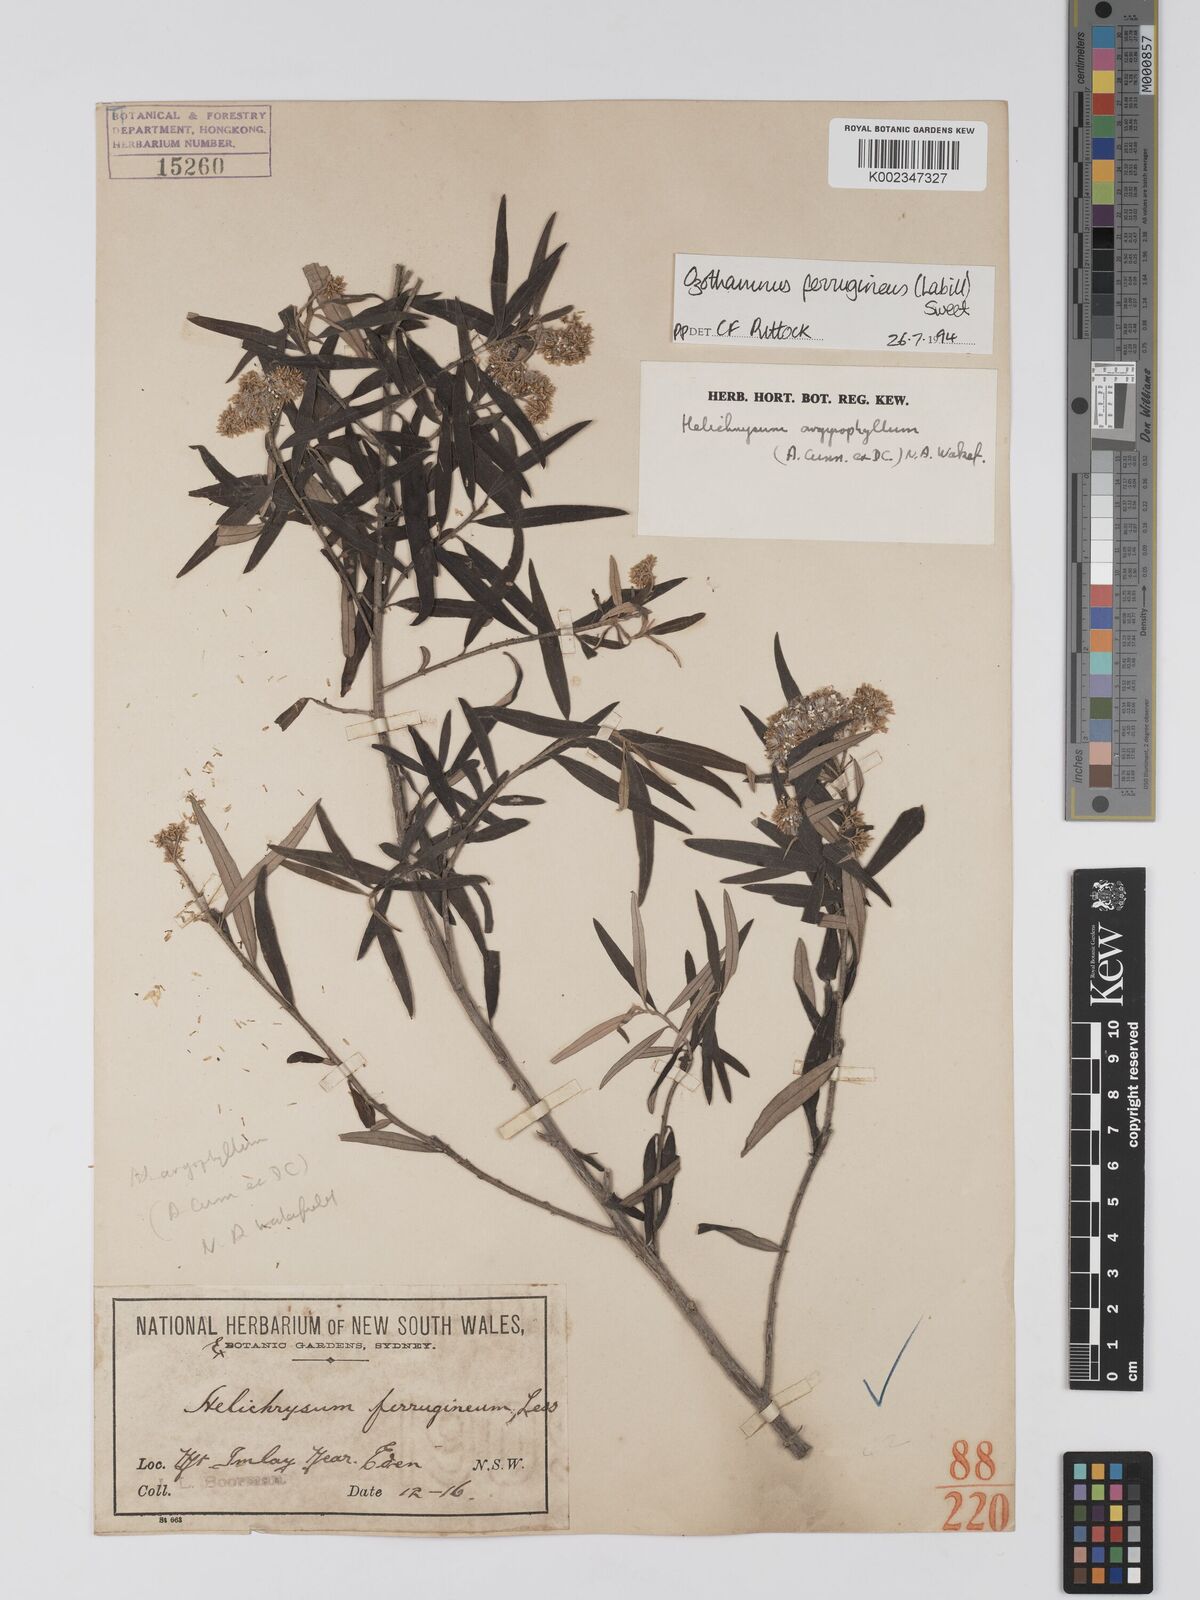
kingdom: Plantae
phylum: Tracheophyta
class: Magnoliopsida
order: Asterales
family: Asteraceae
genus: Ozothamnus
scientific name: Ozothamnus argophyllus
